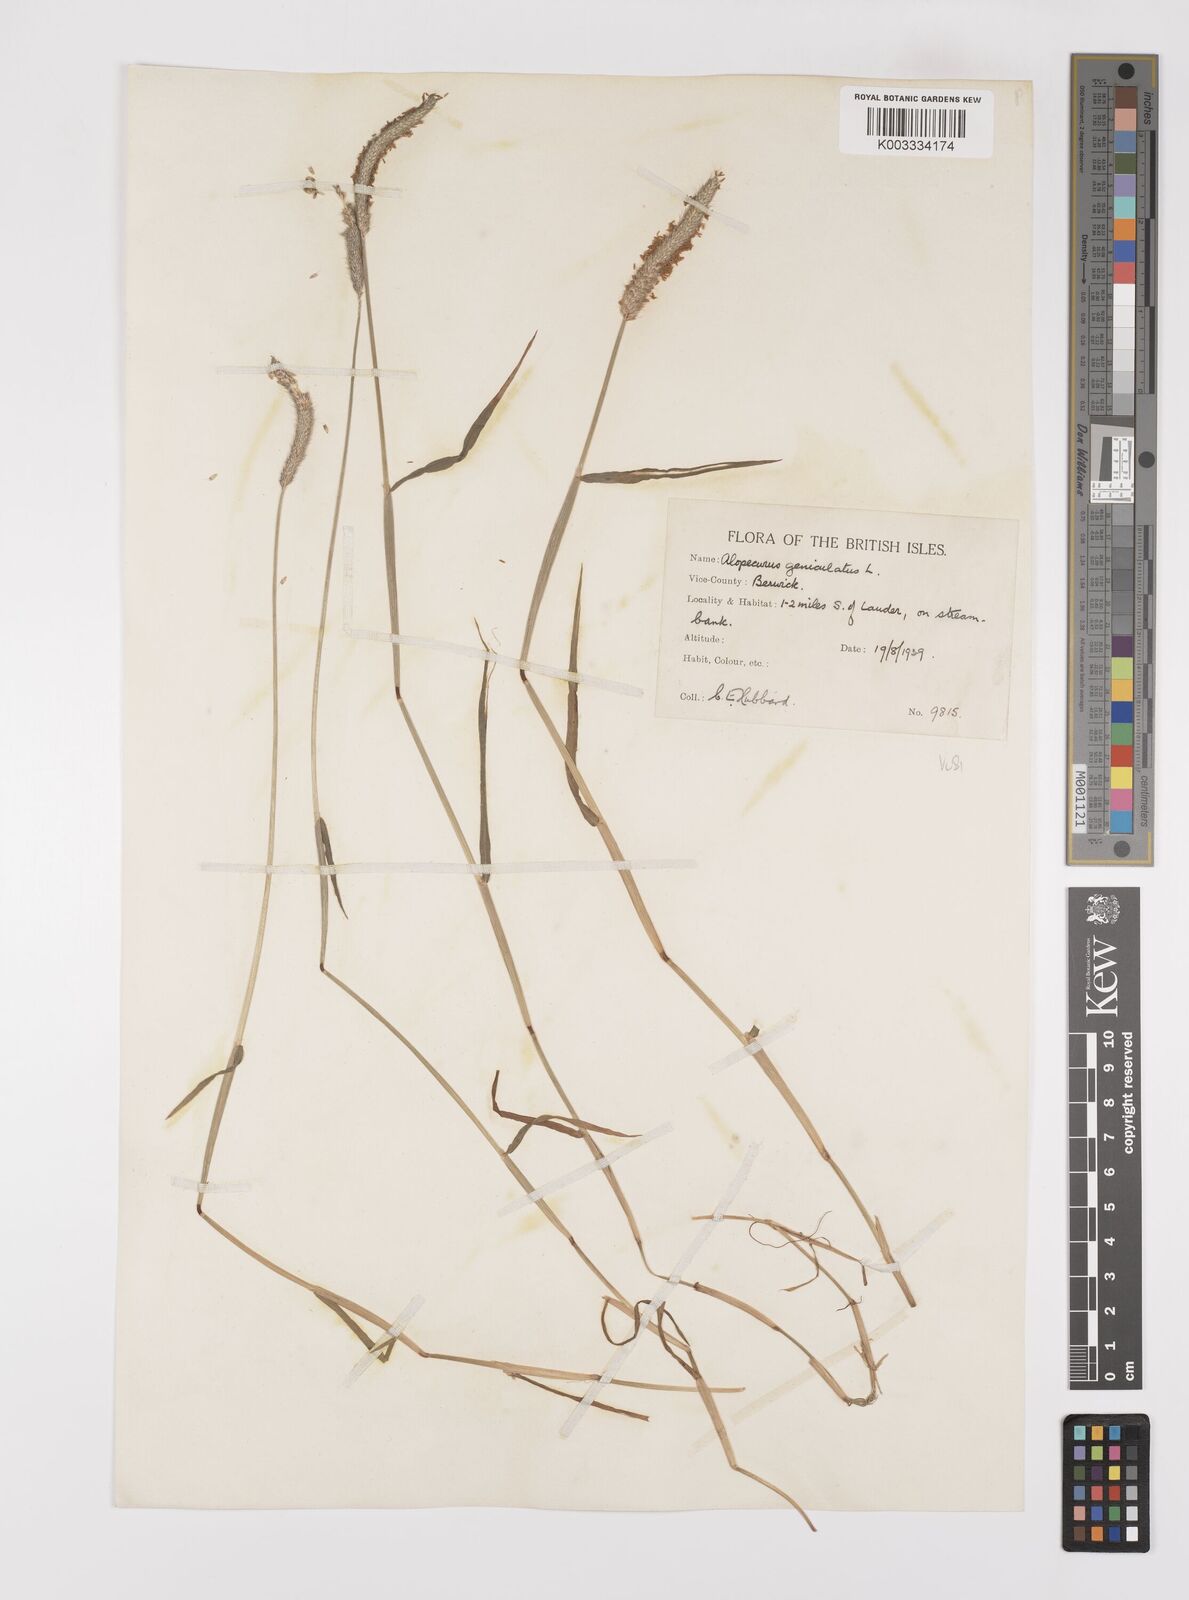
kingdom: Plantae
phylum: Tracheophyta
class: Liliopsida
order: Poales
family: Poaceae
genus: Alopecurus
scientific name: Alopecurus geniculatus
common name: Water foxtail
